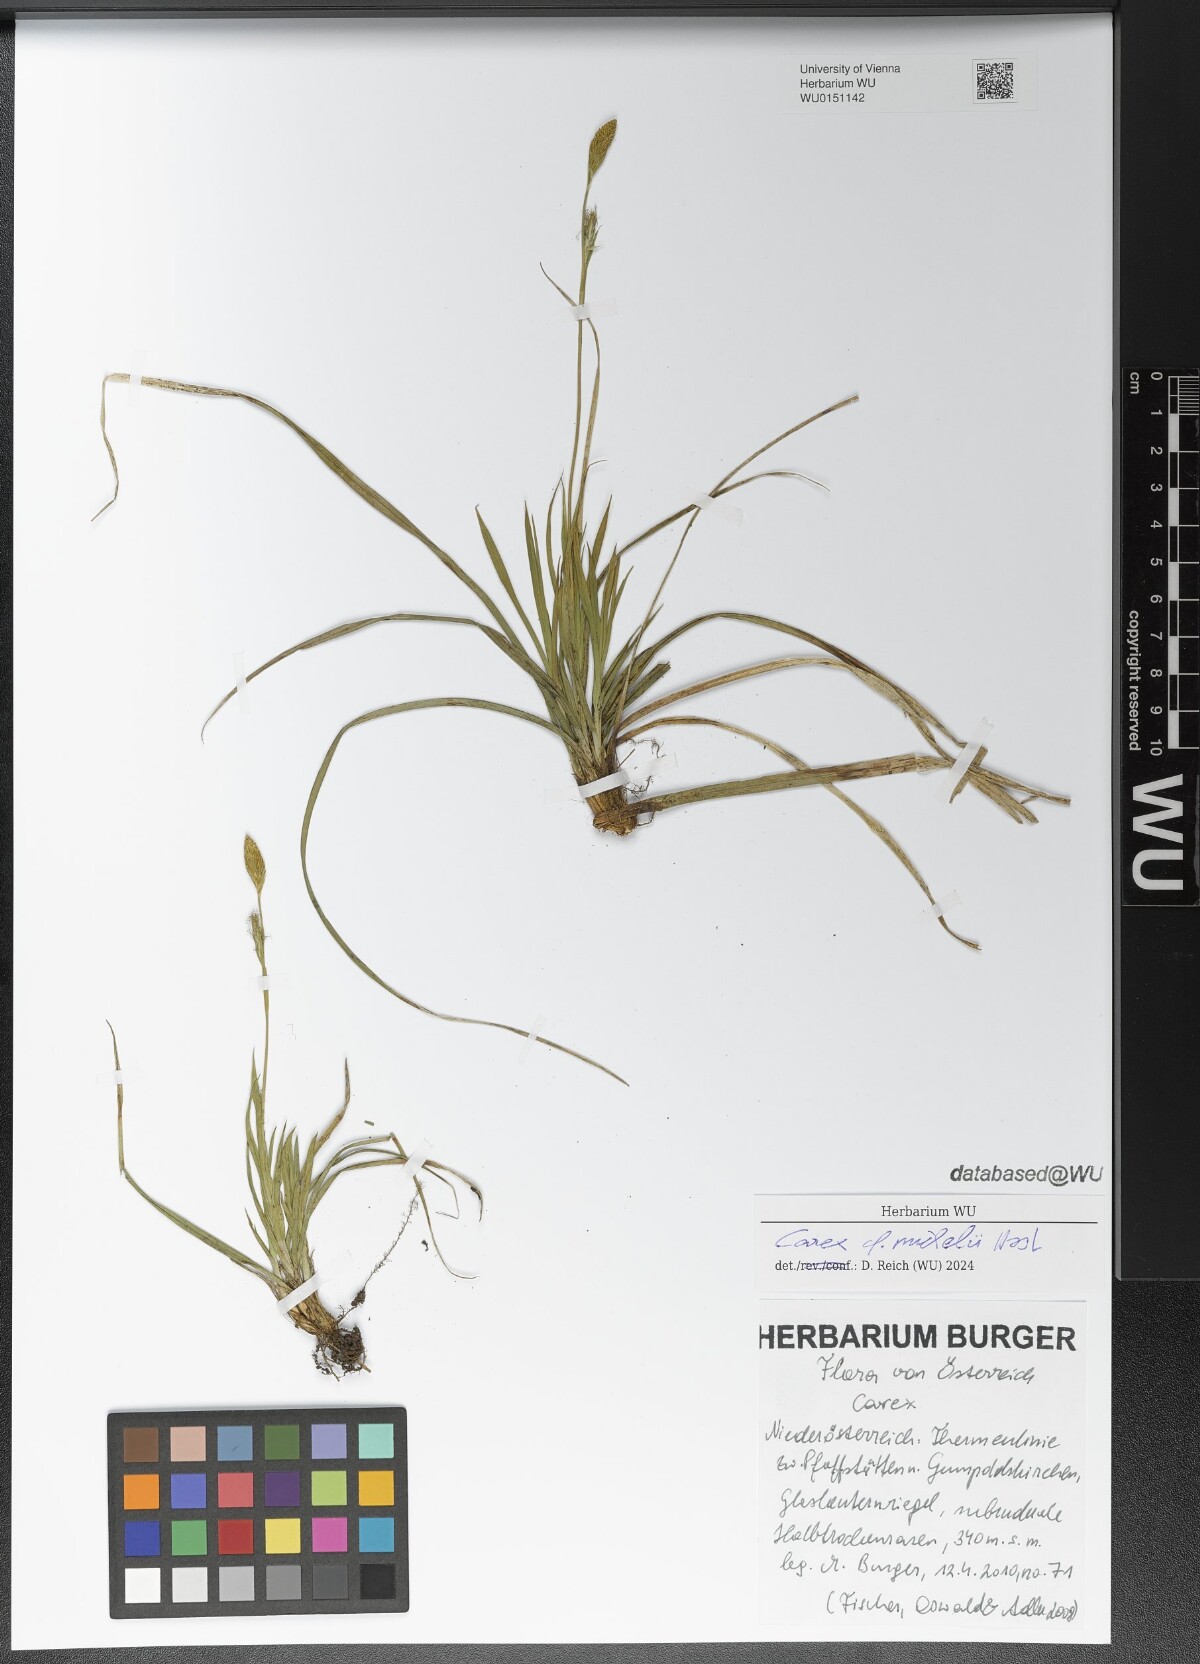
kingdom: Plantae
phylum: Tracheophyta
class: Liliopsida
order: Poales
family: Cyperaceae
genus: Carex
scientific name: Carex michelii
